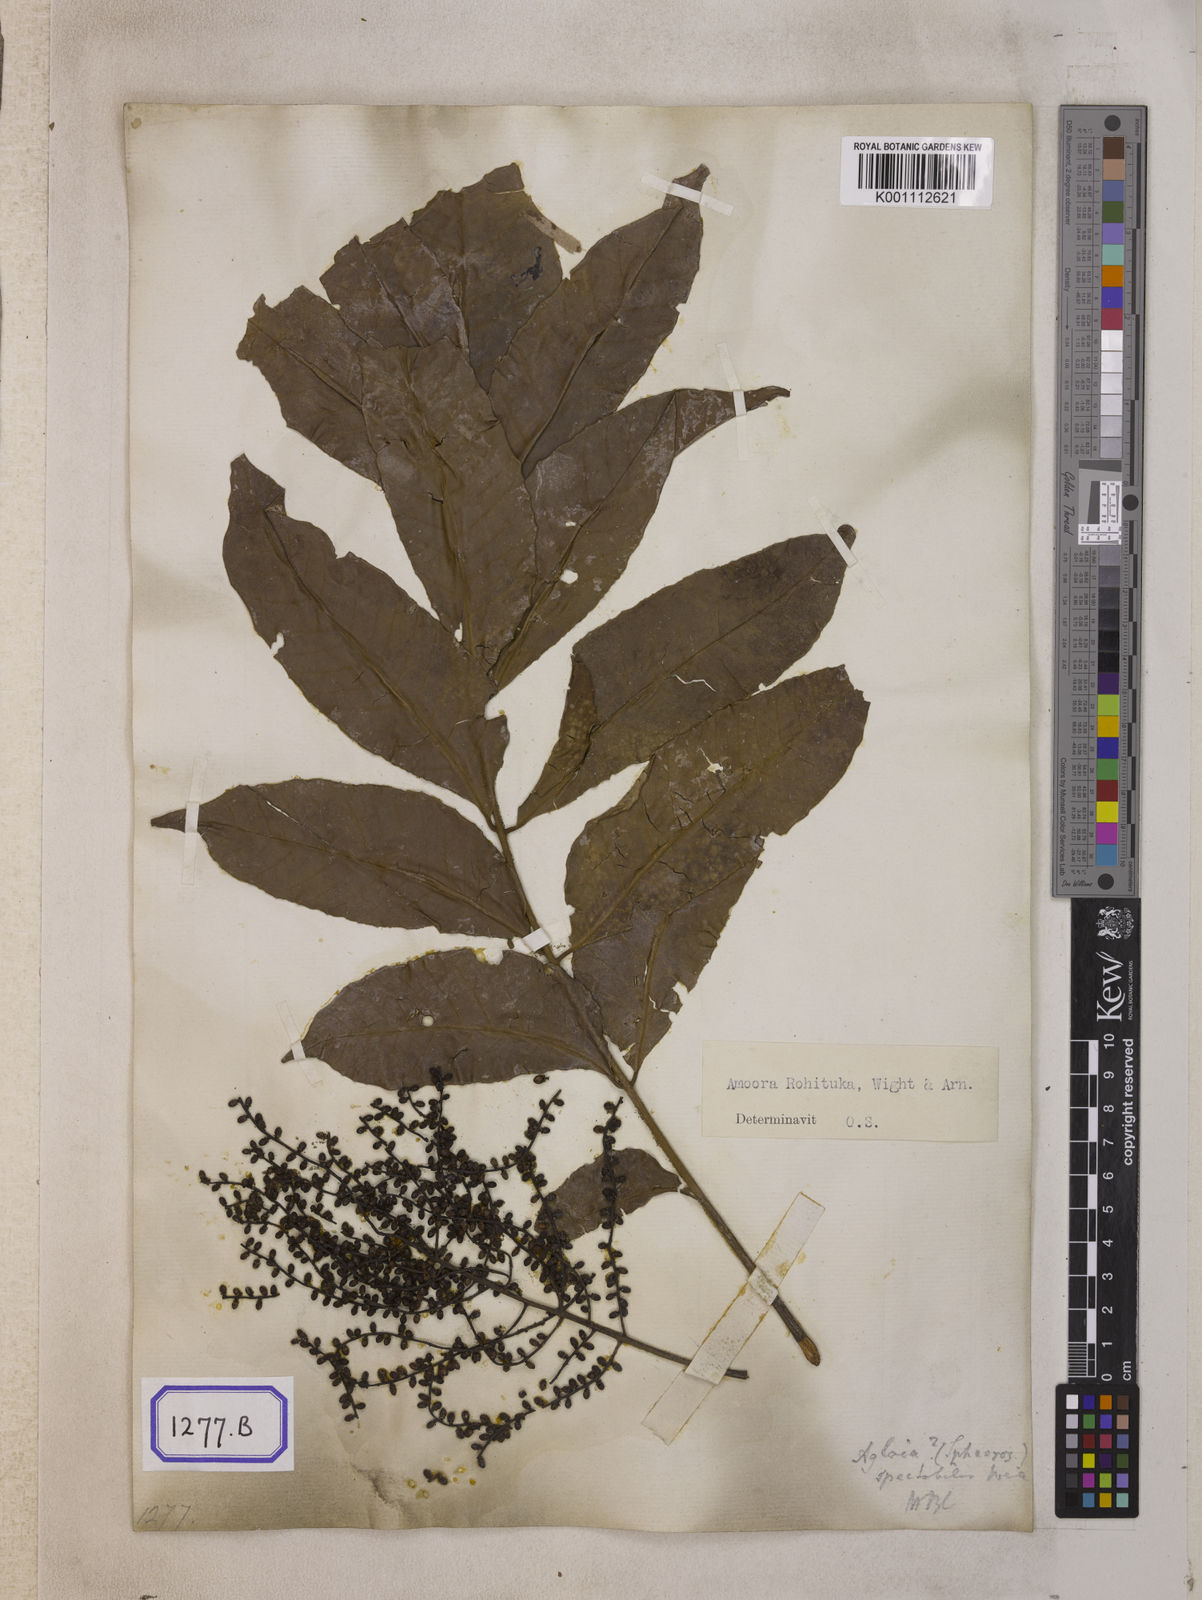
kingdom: Plantae
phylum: Tracheophyta
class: Magnoliopsida
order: Sapindales
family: Meliaceae
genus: Aphanamixis
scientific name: Aphanamixis polystachya
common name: Pithraj tree
